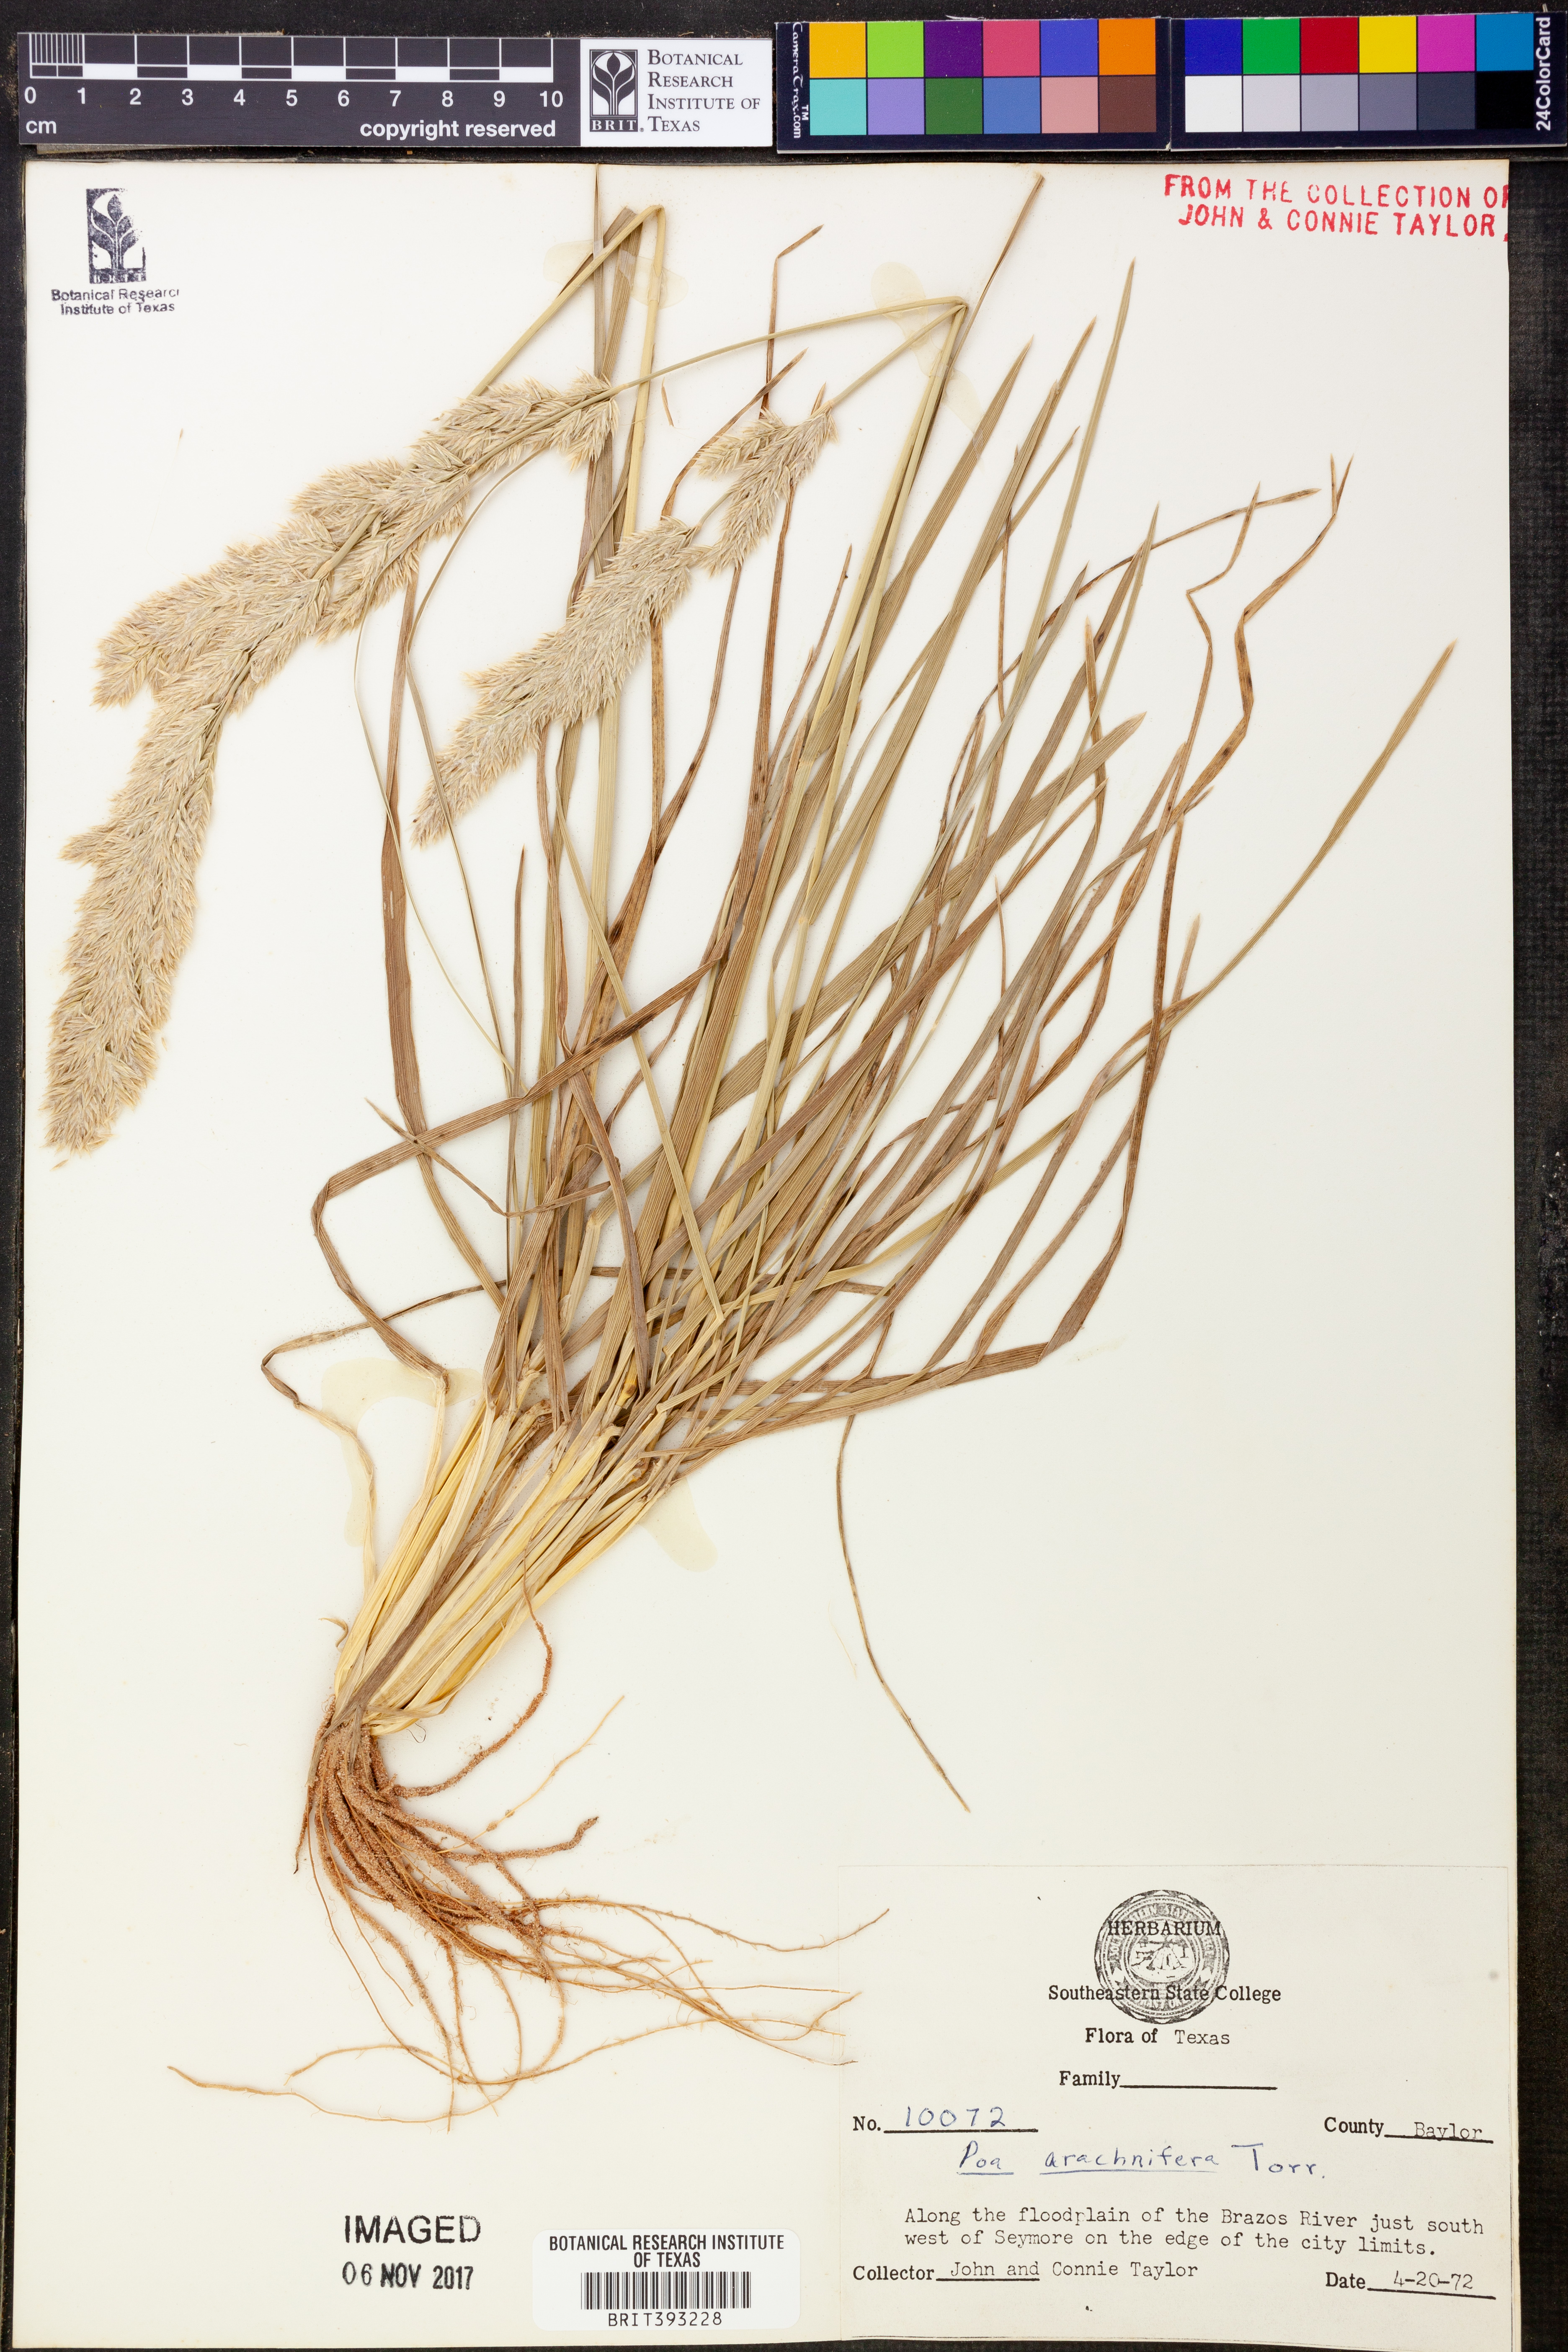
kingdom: Plantae
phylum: Tracheophyta
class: Liliopsida
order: Poales
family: Poaceae
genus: Poa
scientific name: Poa arachnifera
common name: Texas bluegrass
